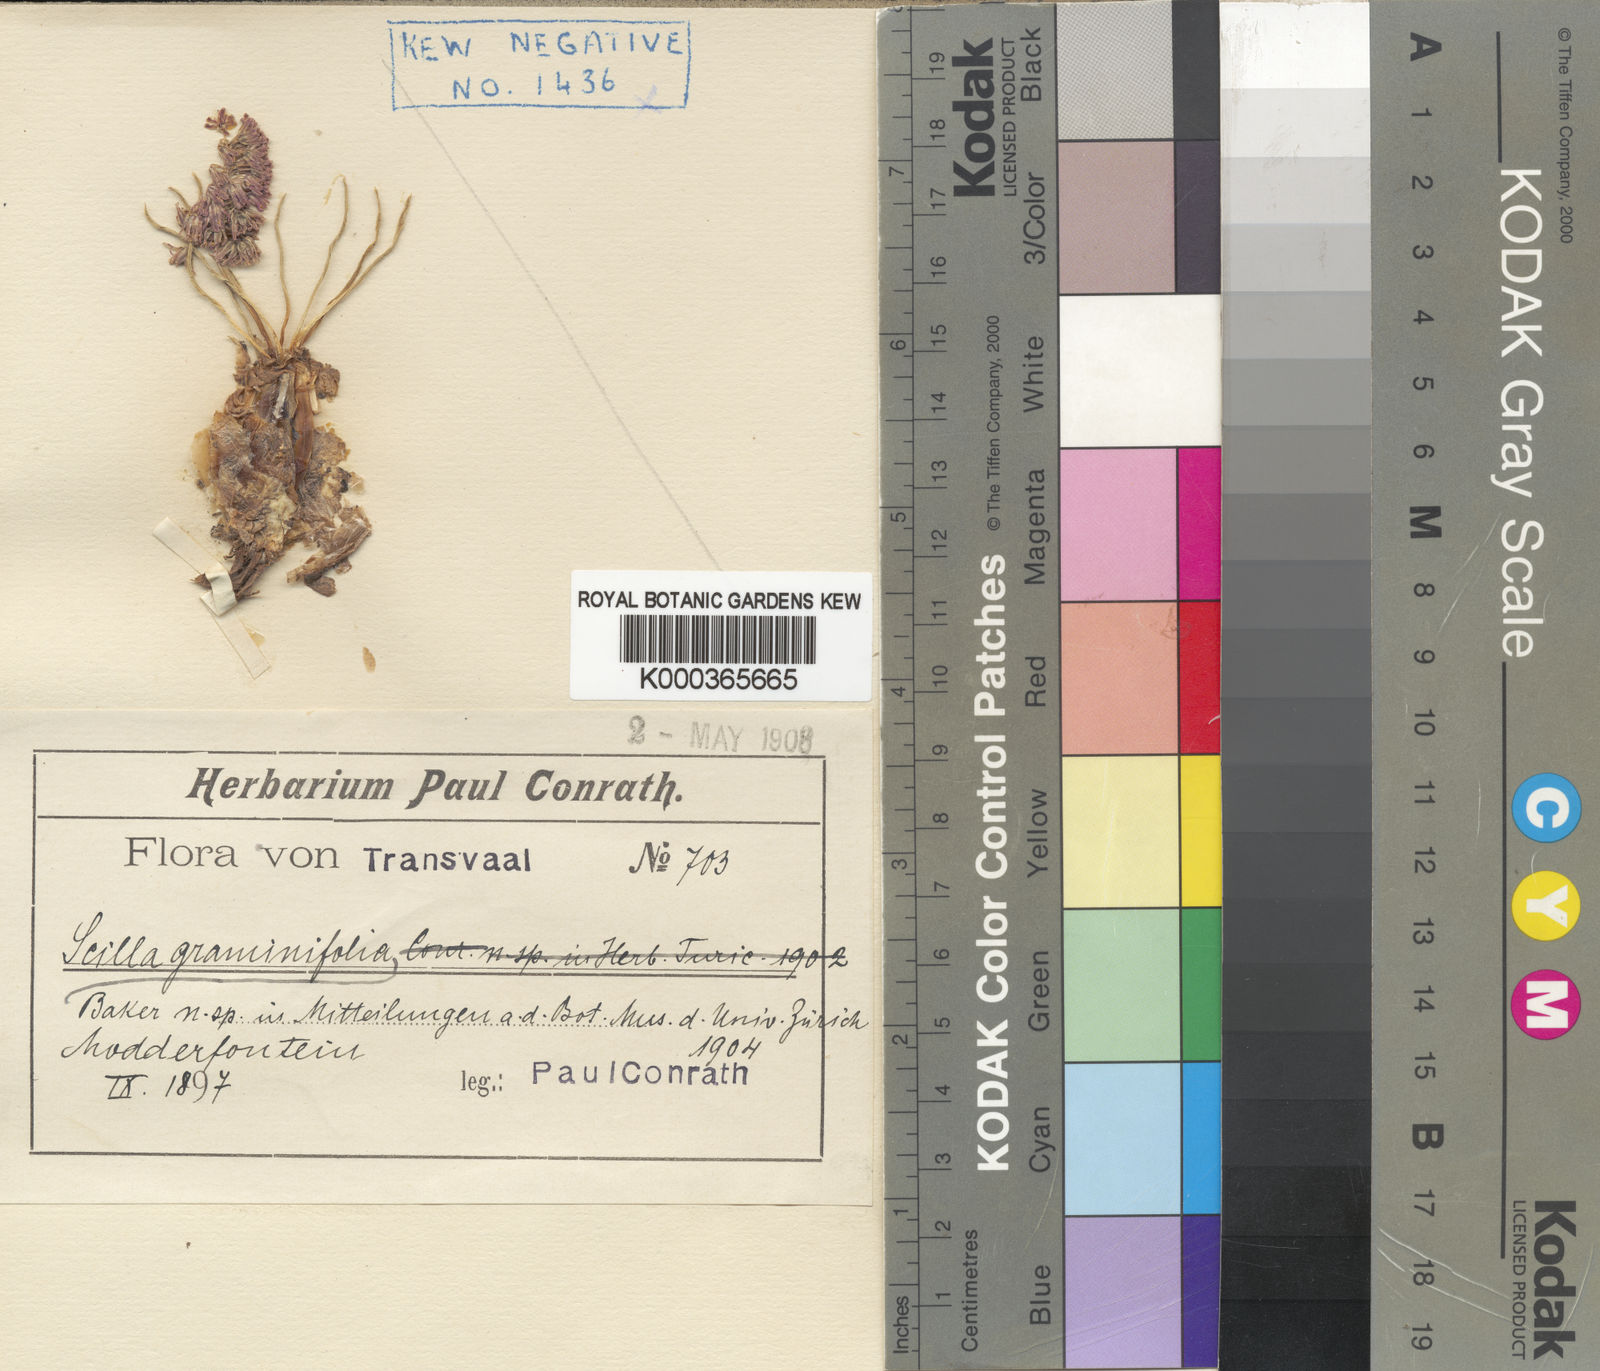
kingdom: Plantae
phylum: Tracheophyta
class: Liliopsida
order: Asparagales
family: Asparagaceae
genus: Ledebouria
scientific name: Ledebouria leptophylla
